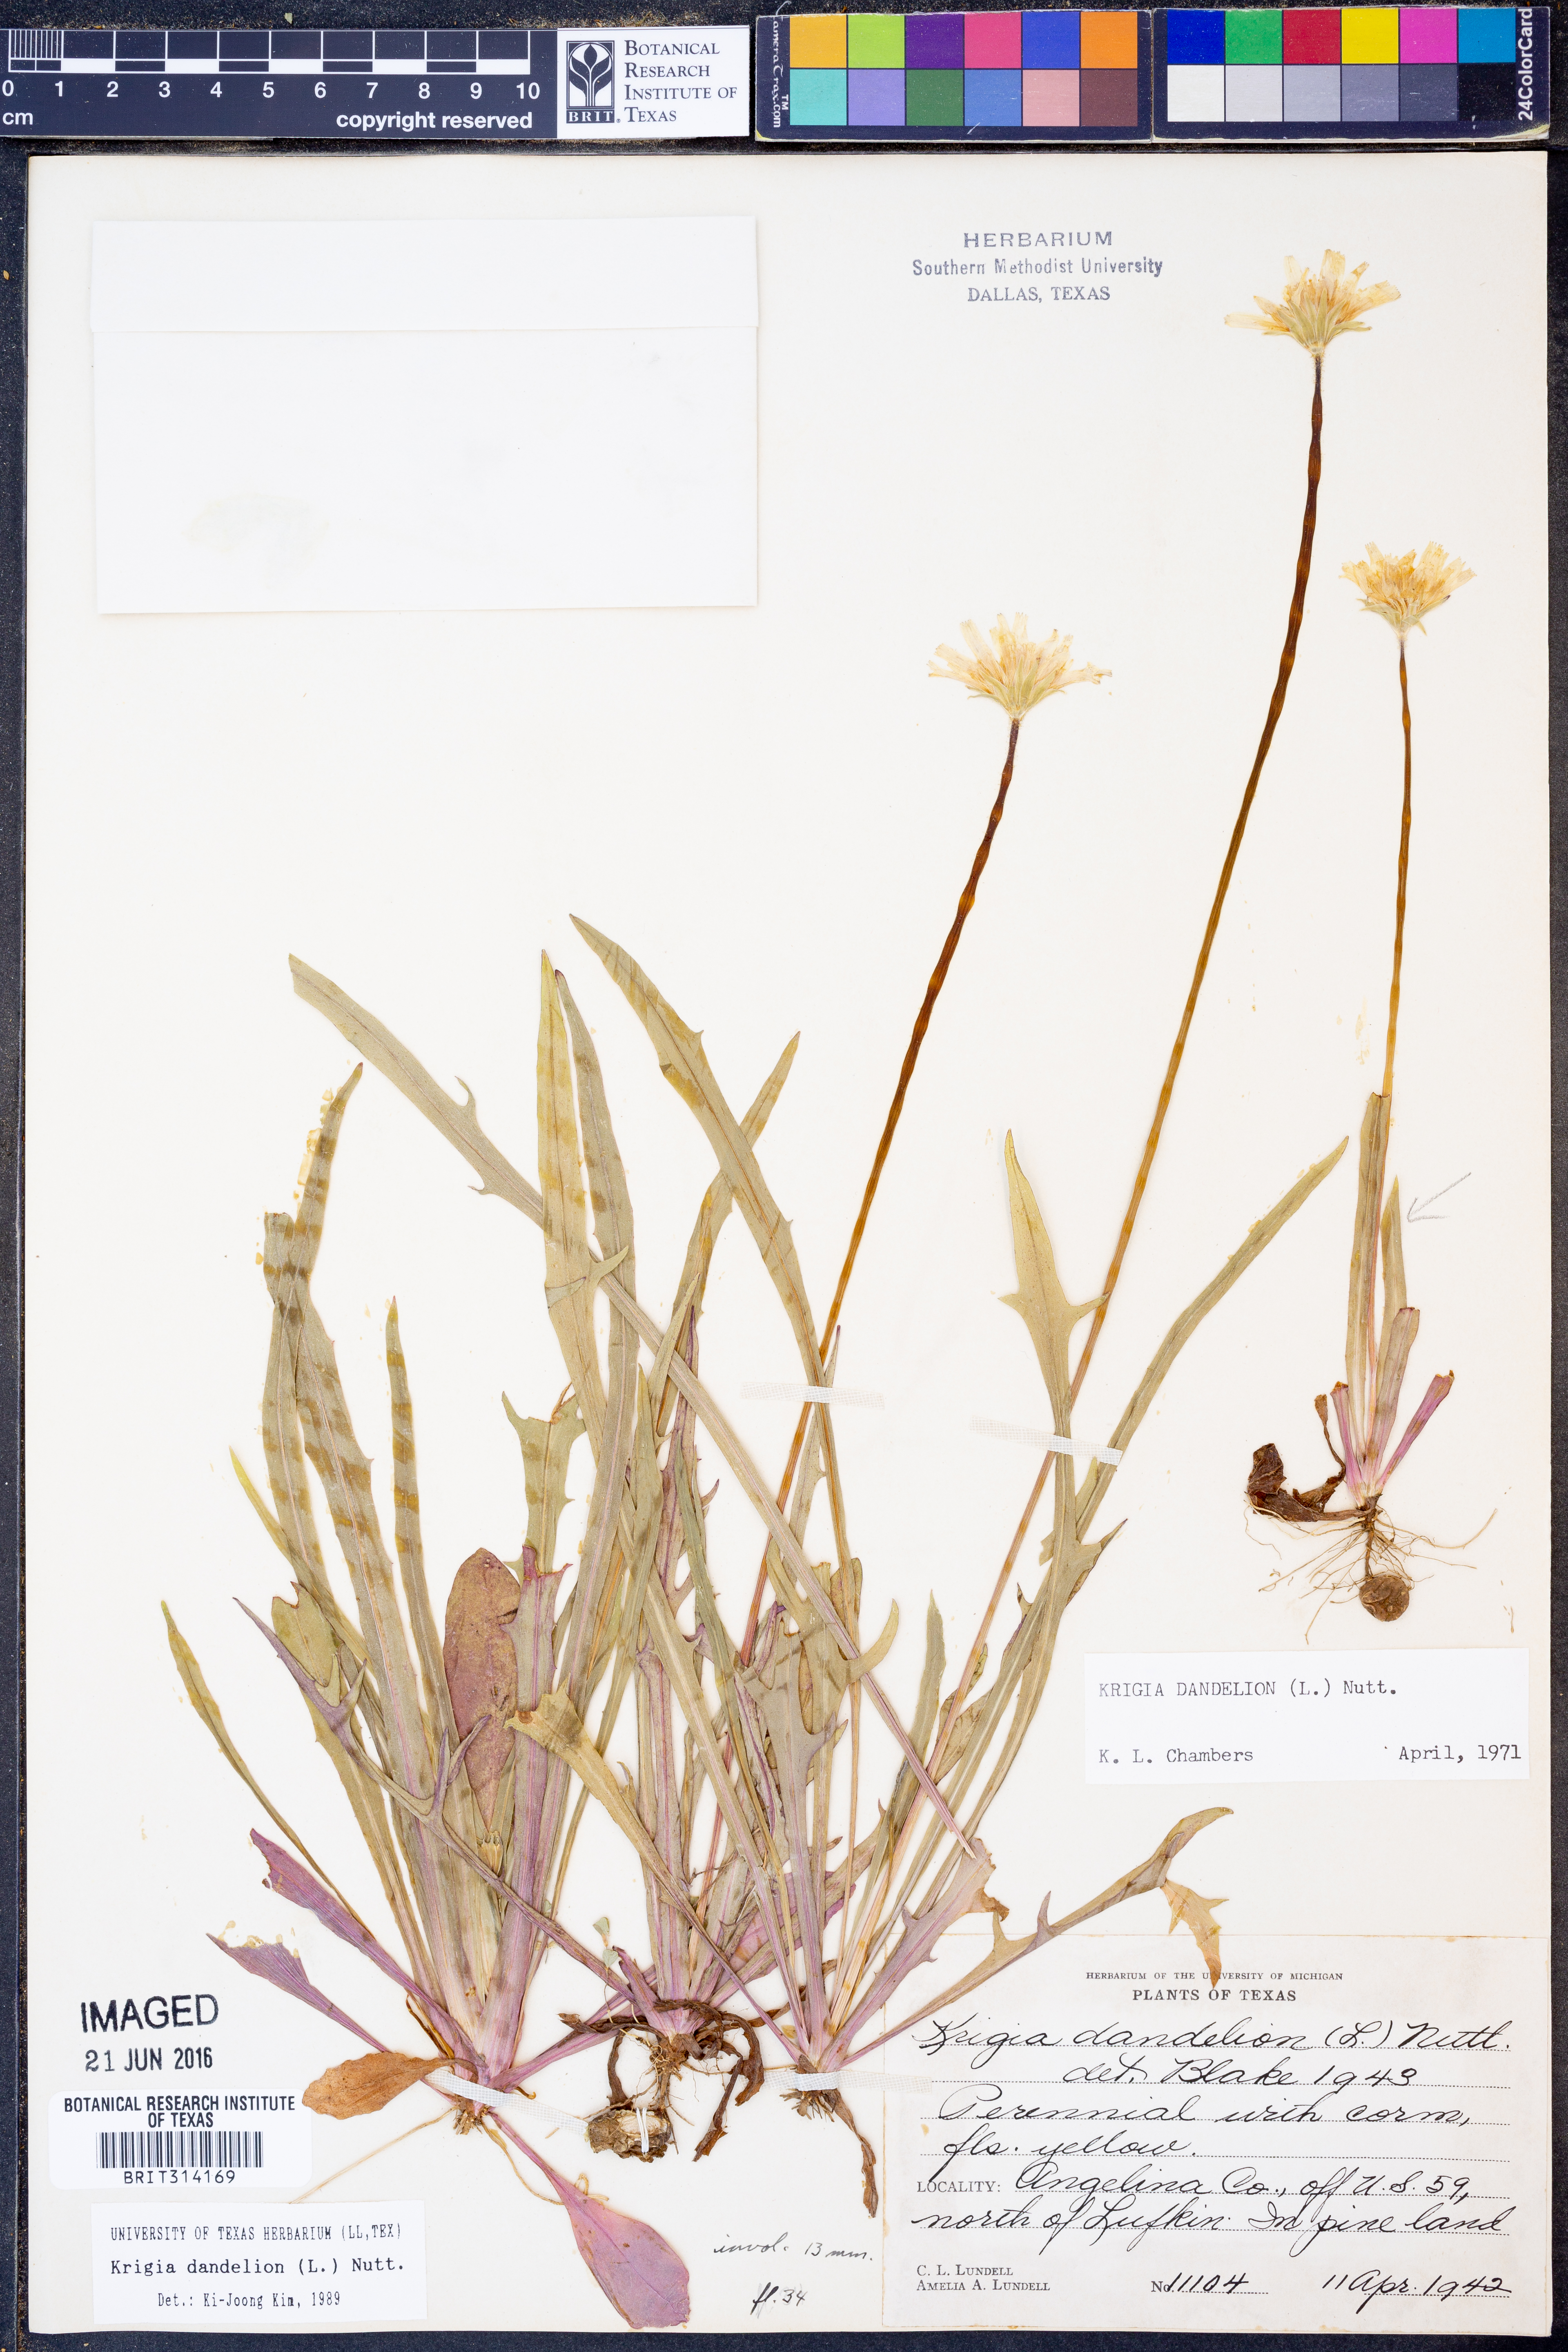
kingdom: Plantae
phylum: Tracheophyta
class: Magnoliopsida
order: Asterales
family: Asteraceae
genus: Krigia
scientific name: Krigia dandelion
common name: Colonial dwarf-dandelion
